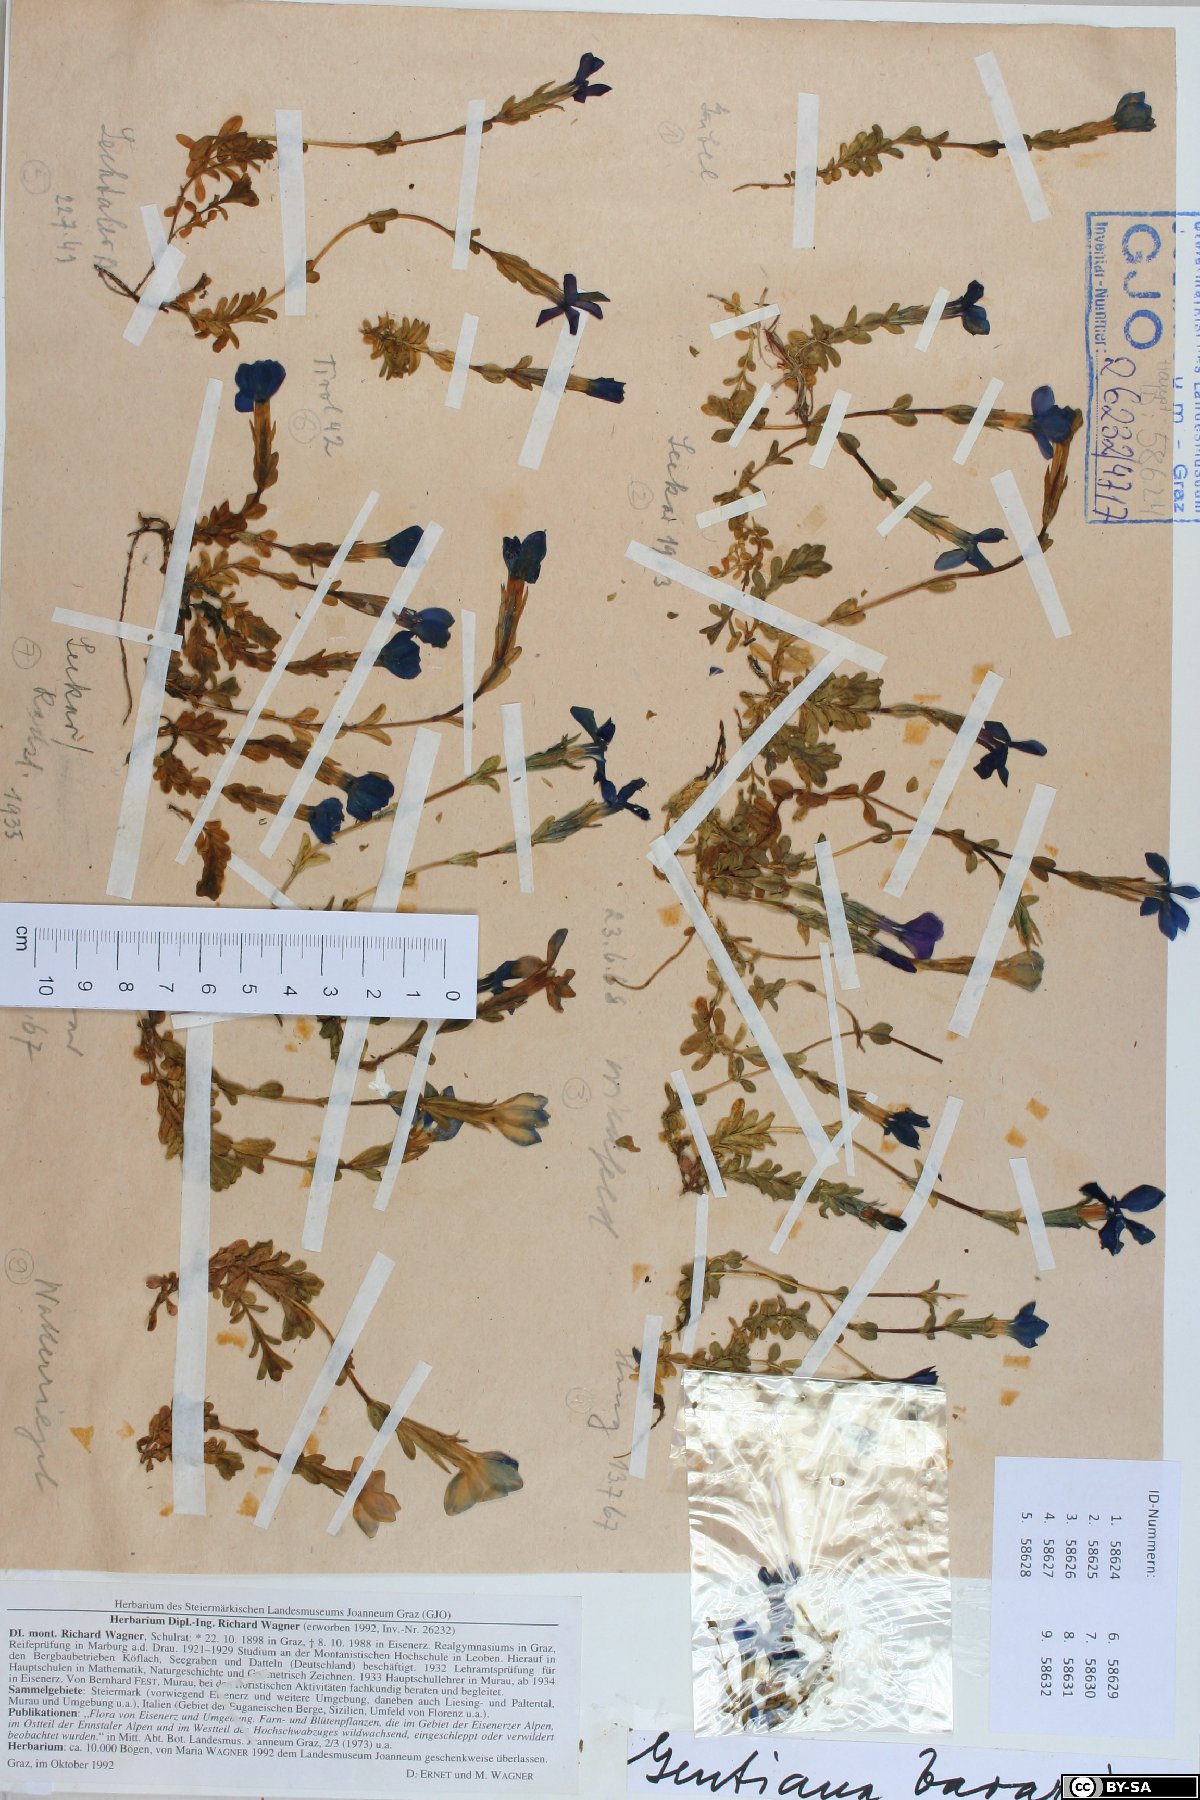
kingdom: Plantae
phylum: Tracheophyta
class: Magnoliopsida
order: Gentianales
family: Gentianaceae
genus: Gentiana
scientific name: Gentiana bavarica
